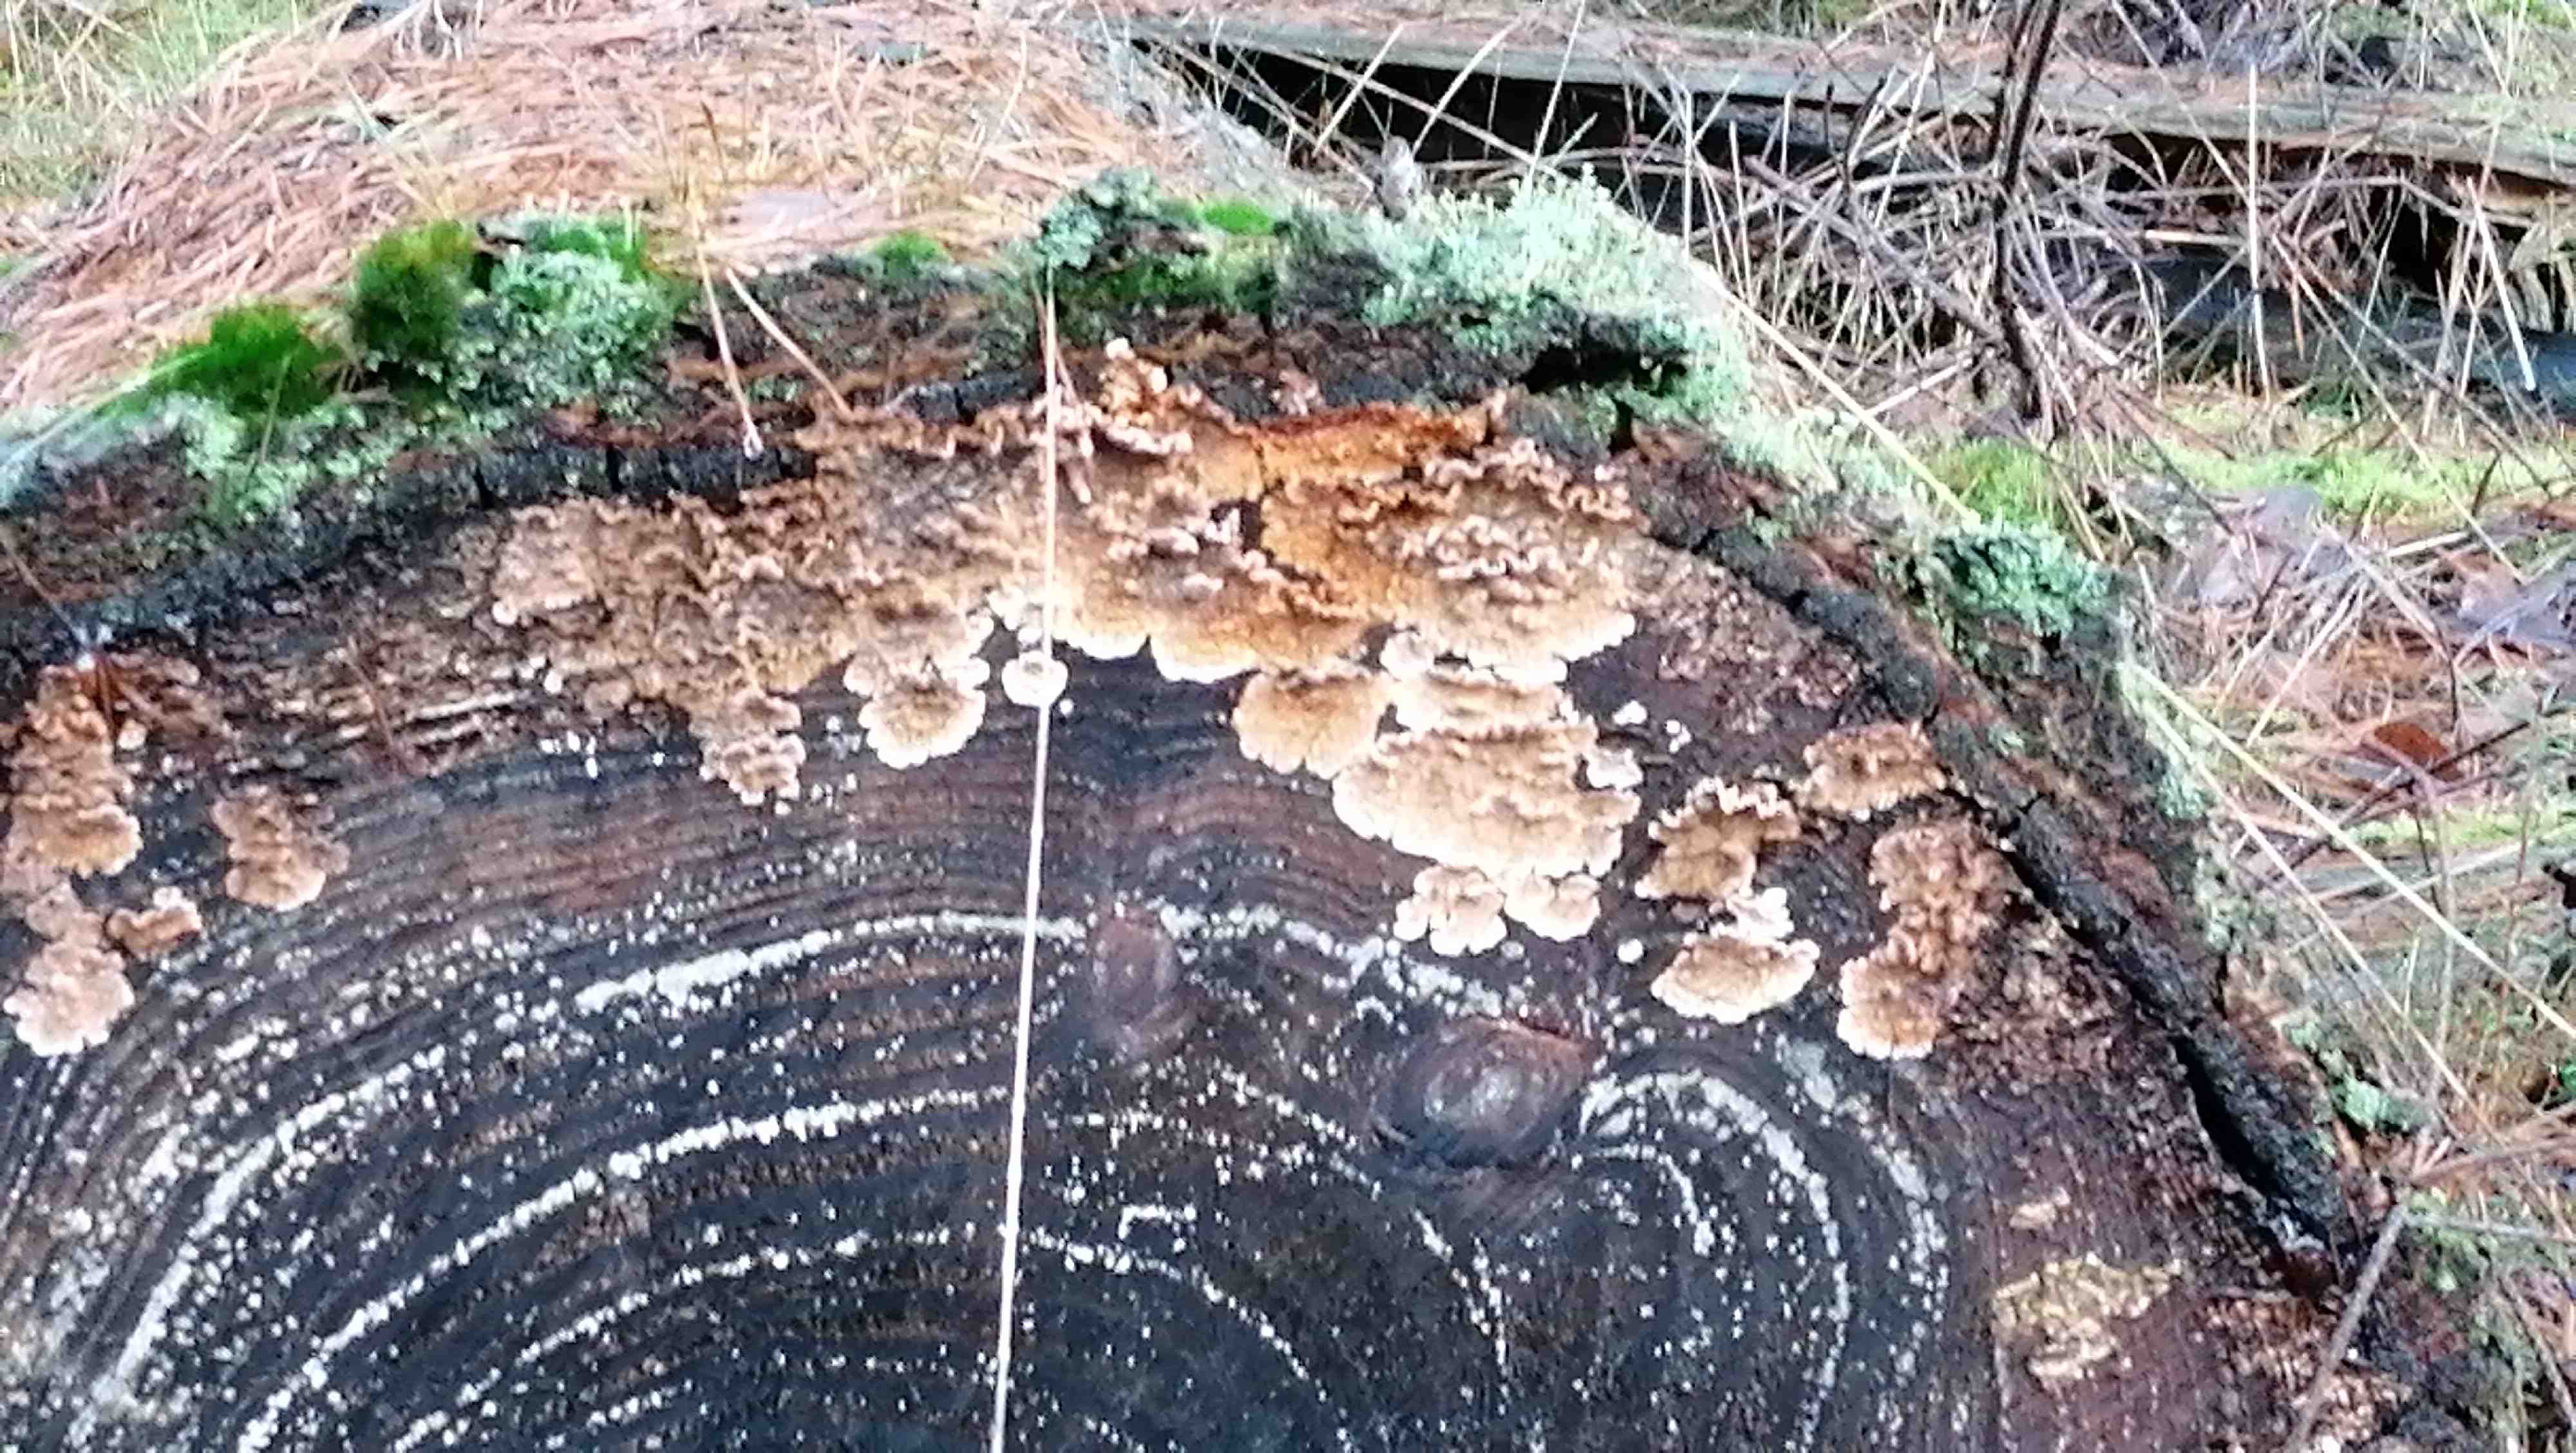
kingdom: Fungi
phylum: Basidiomycota
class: Agaricomycetes
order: Russulales
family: Stereaceae
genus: Stereum
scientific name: Stereum sanguinolentum
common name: blødende lædersvamp
